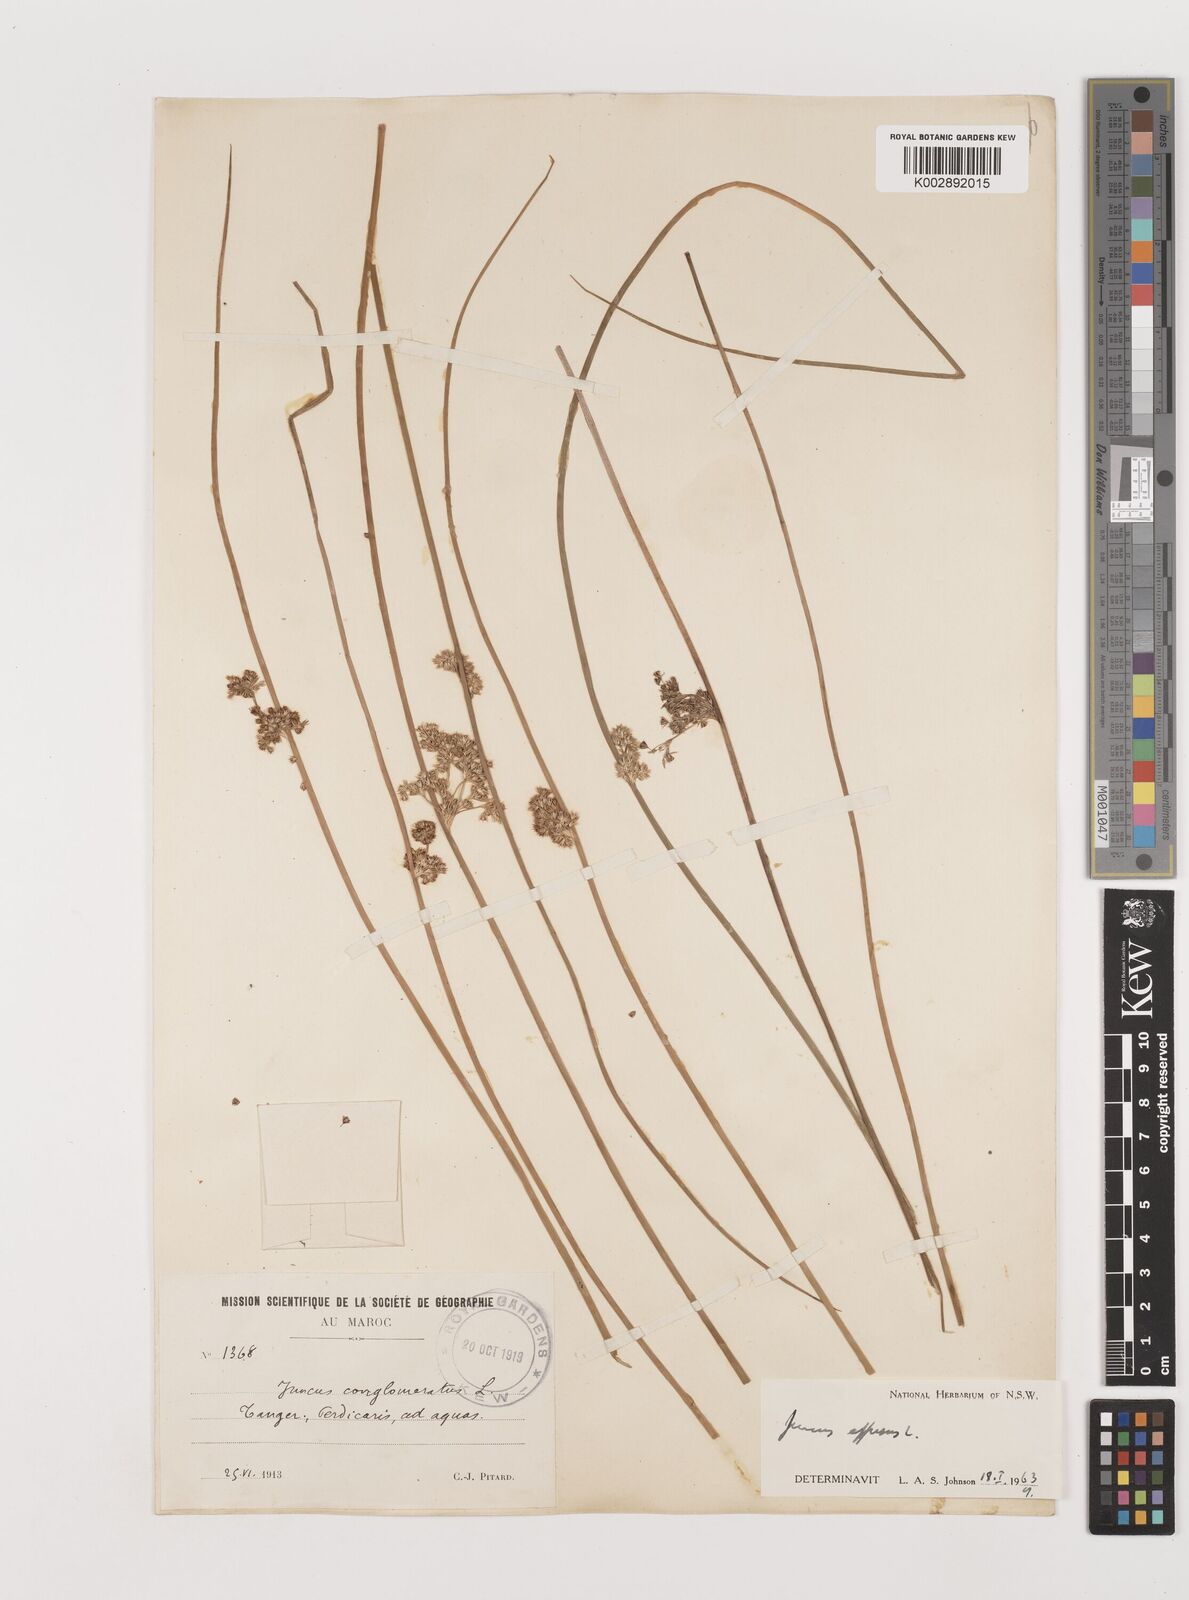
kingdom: Plantae
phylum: Tracheophyta
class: Liliopsida
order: Poales
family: Juncaceae
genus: Juncus
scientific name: Juncus effusus
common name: Soft rush
